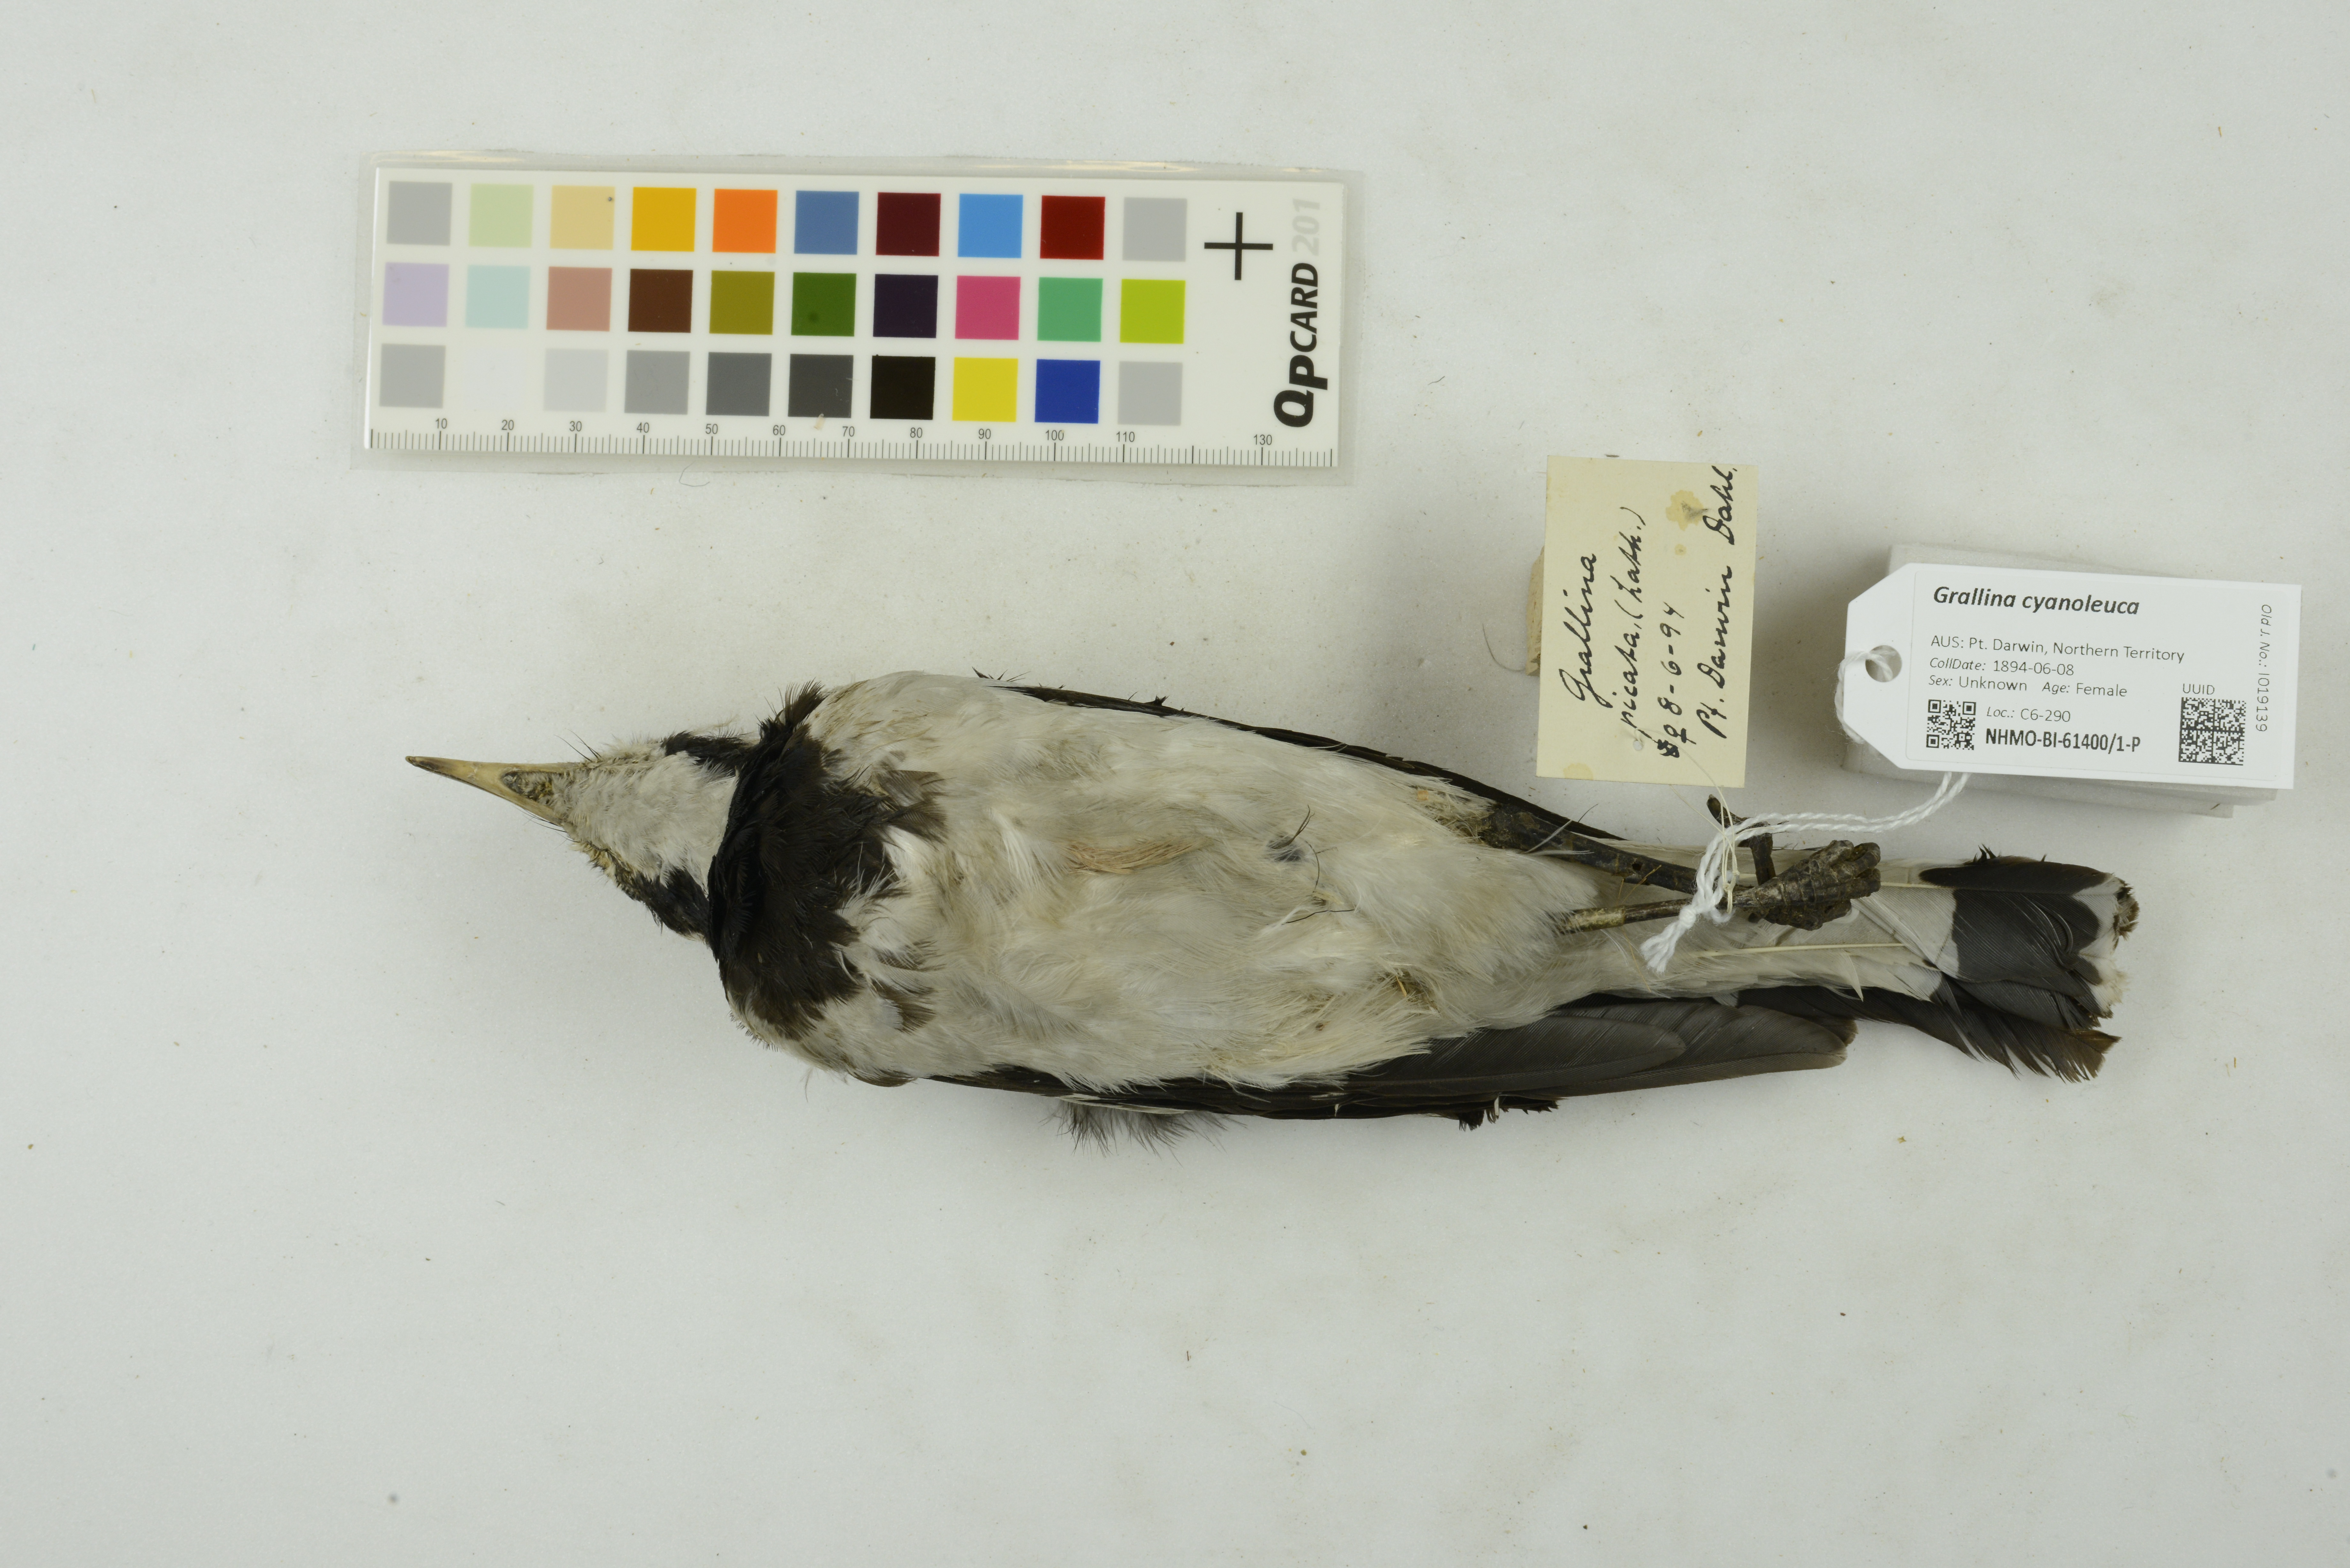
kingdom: Animalia
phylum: Chordata
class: Aves
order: Passeriformes
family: Monarchidae
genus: Grallina
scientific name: Grallina cyanoleuca
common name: Magpie-lark
